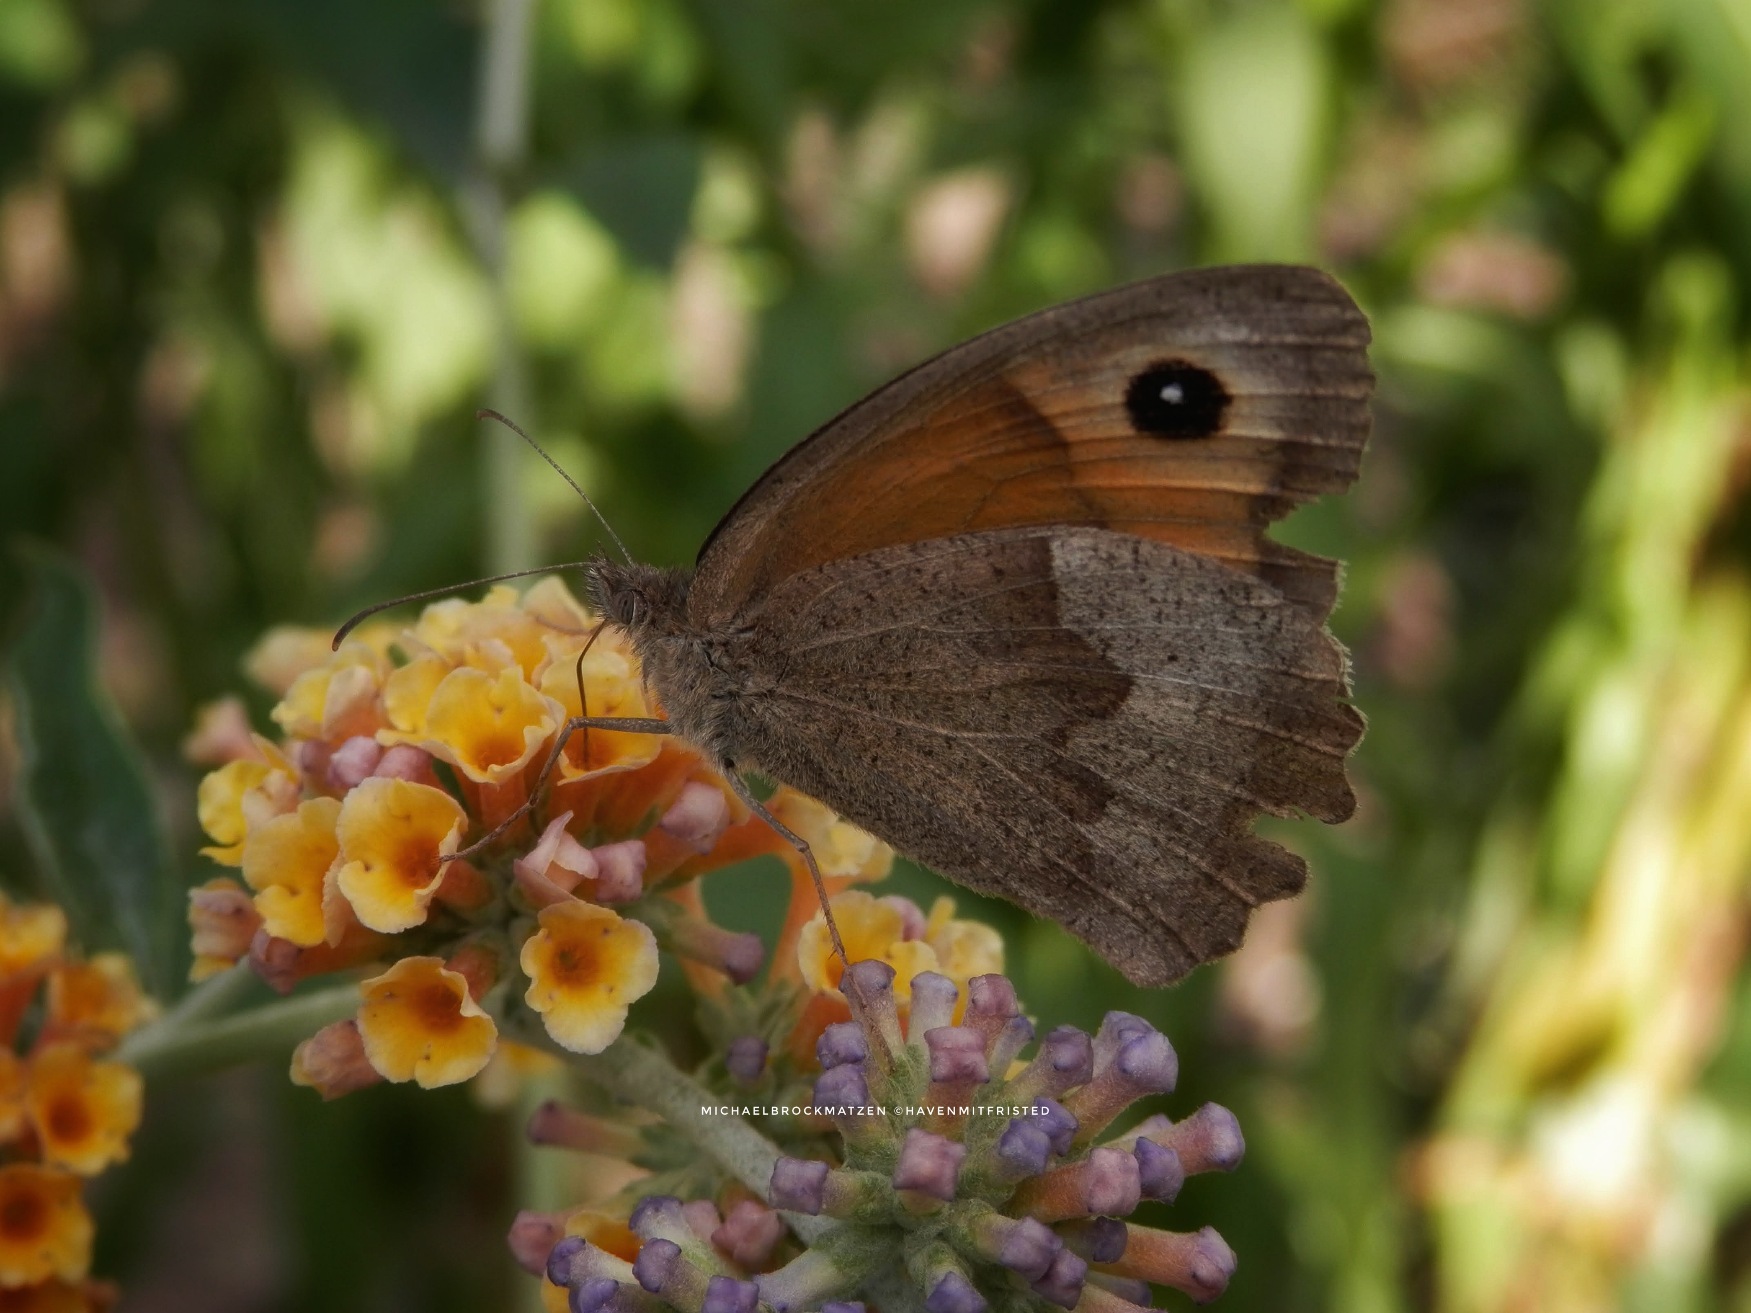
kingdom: Animalia
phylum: Arthropoda
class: Insecta
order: Lepidoptera
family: Nymphalidae
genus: Maniola
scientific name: Maniola jurtina
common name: Græsrandøje
